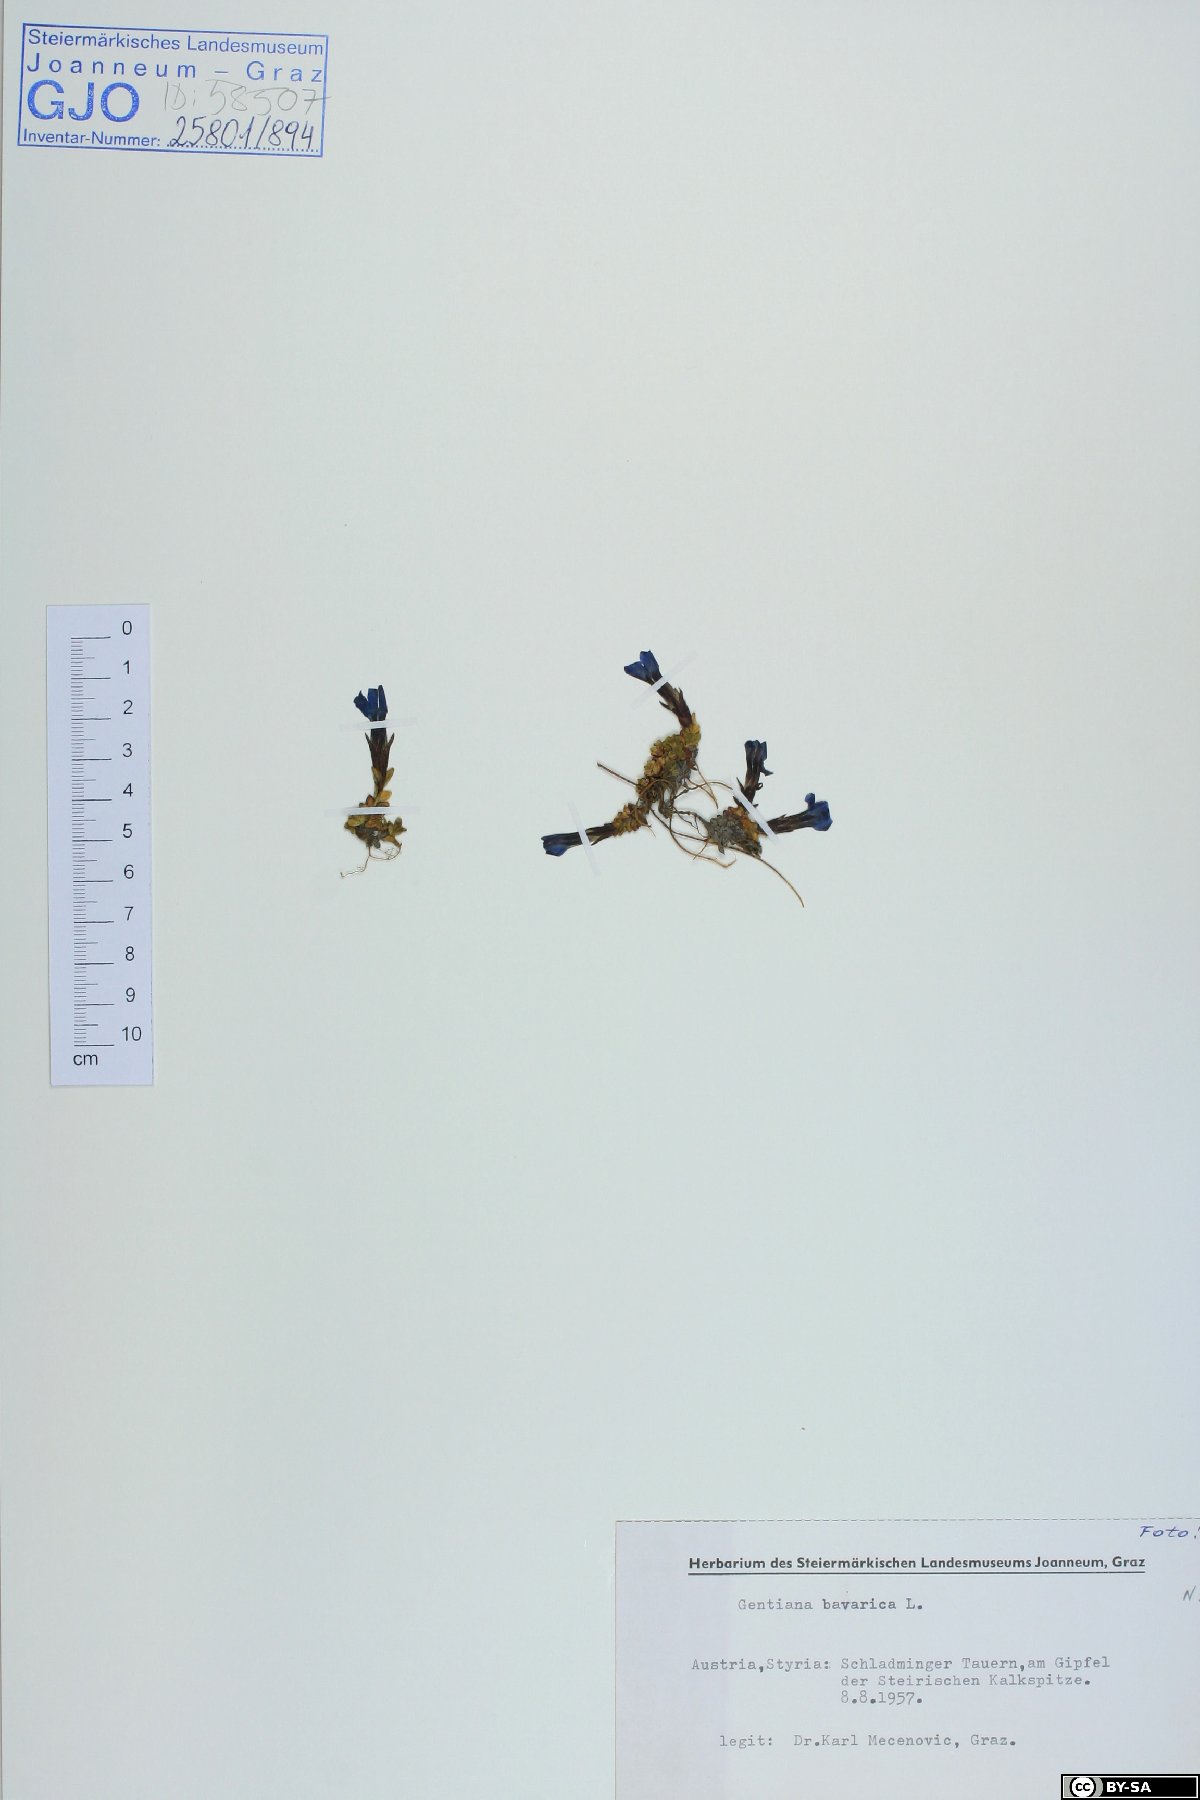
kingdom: Plantae
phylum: Tracheophyta
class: Magnoliopsida
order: Gentianales
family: Gentianaceae
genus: Gentiana
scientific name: Gentiana bavarica
